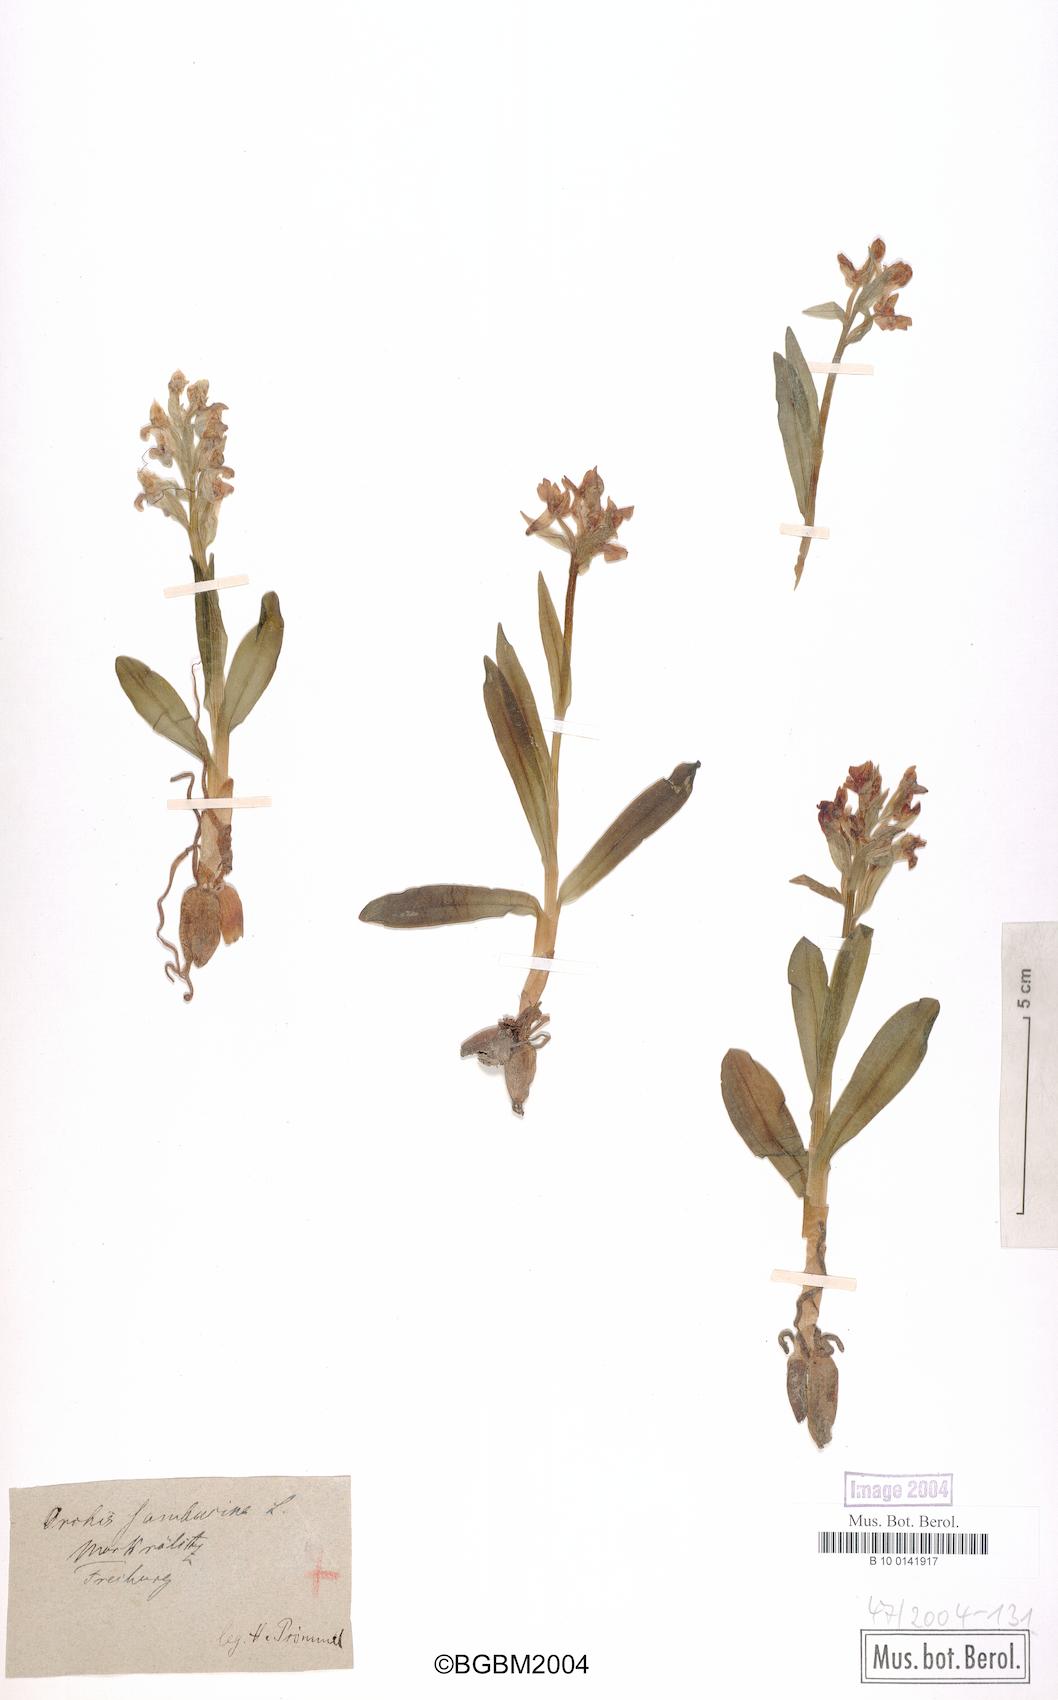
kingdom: Plantae
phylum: Tracheophyta
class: Liliopsida
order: Asparagales
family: Orchidaceae
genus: Dactylorhiza
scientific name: Dactylorhiza sambucina
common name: Elder-flowered orchid
